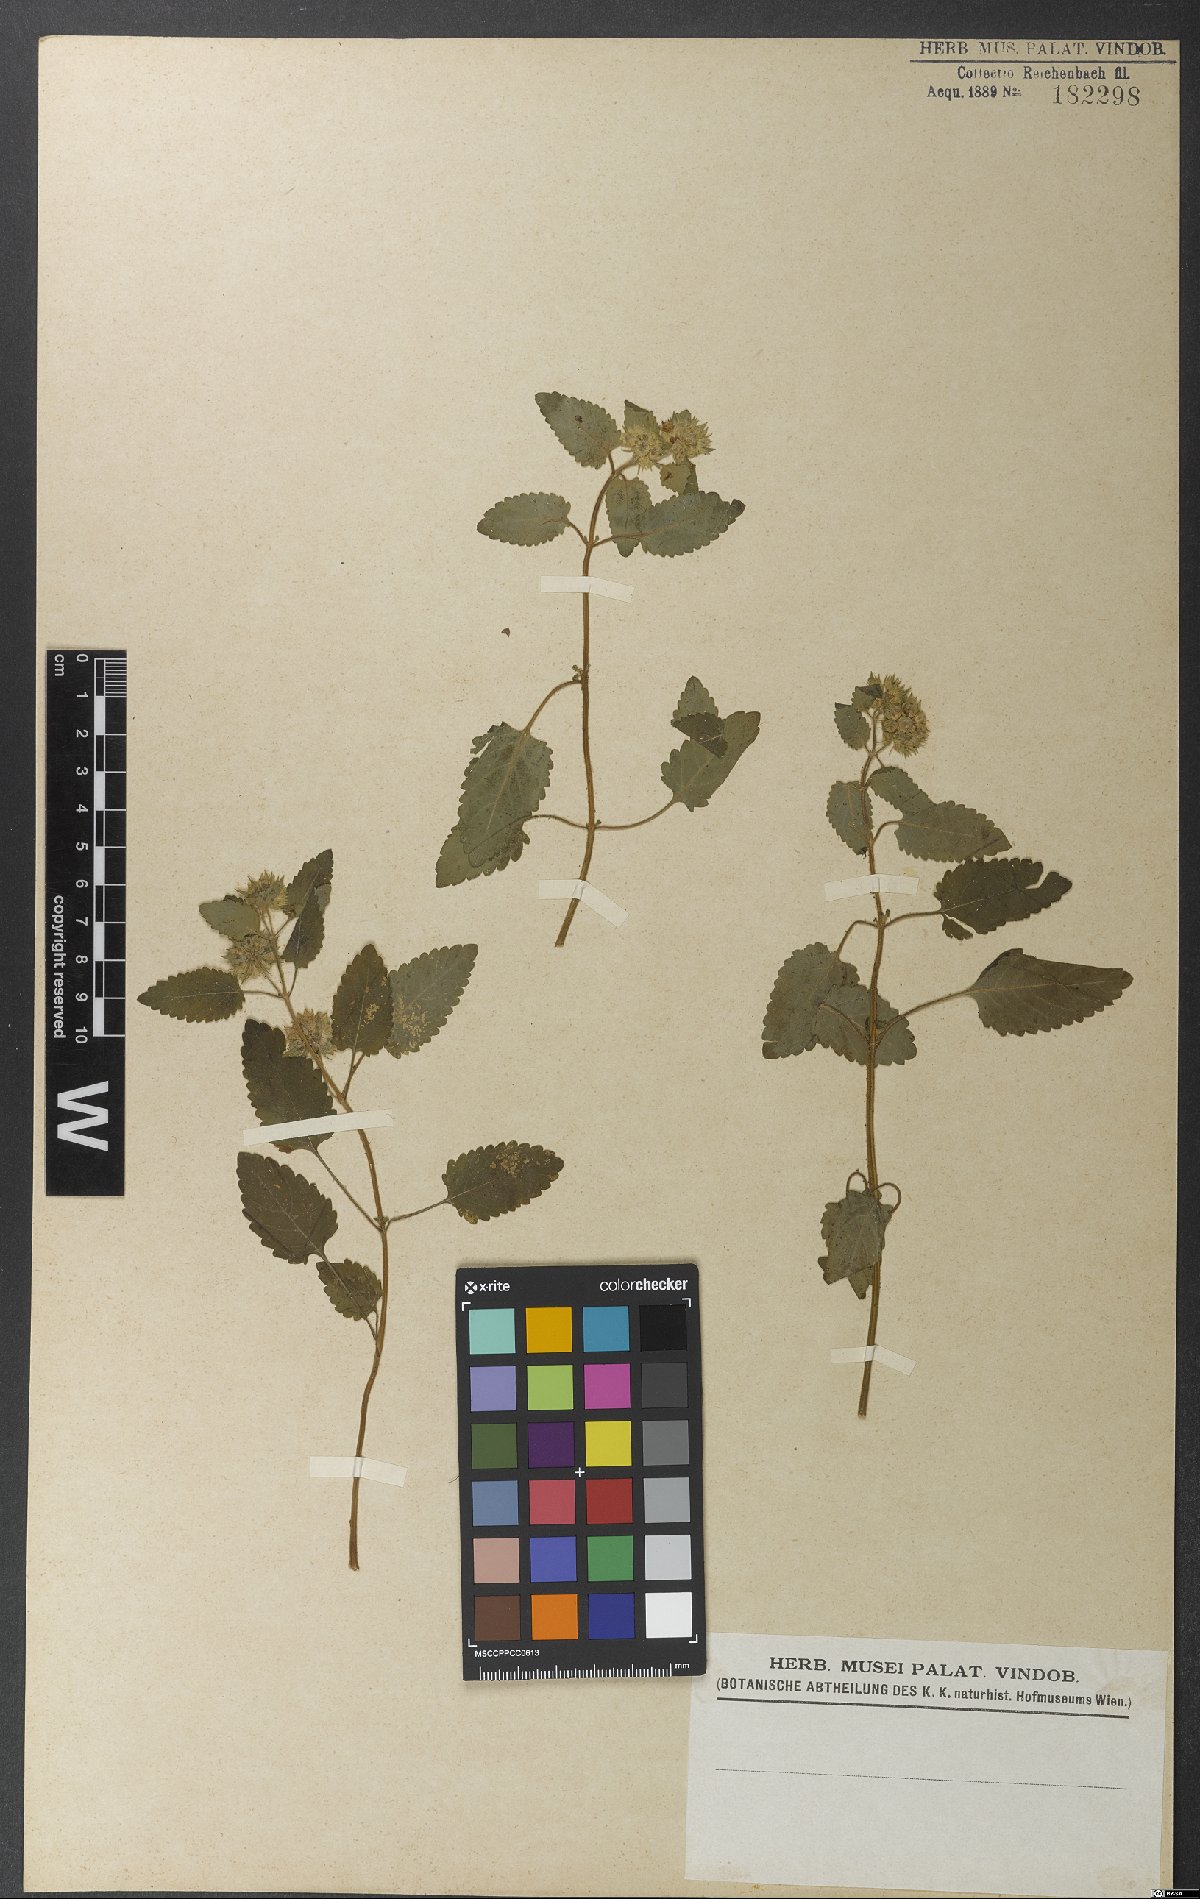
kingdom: Plantae
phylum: Tracheophyta
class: Magnoliopsida
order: Lamiales
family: Lamiaceae
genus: Marsypianthes
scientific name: Marsypianthes chamaedrys
